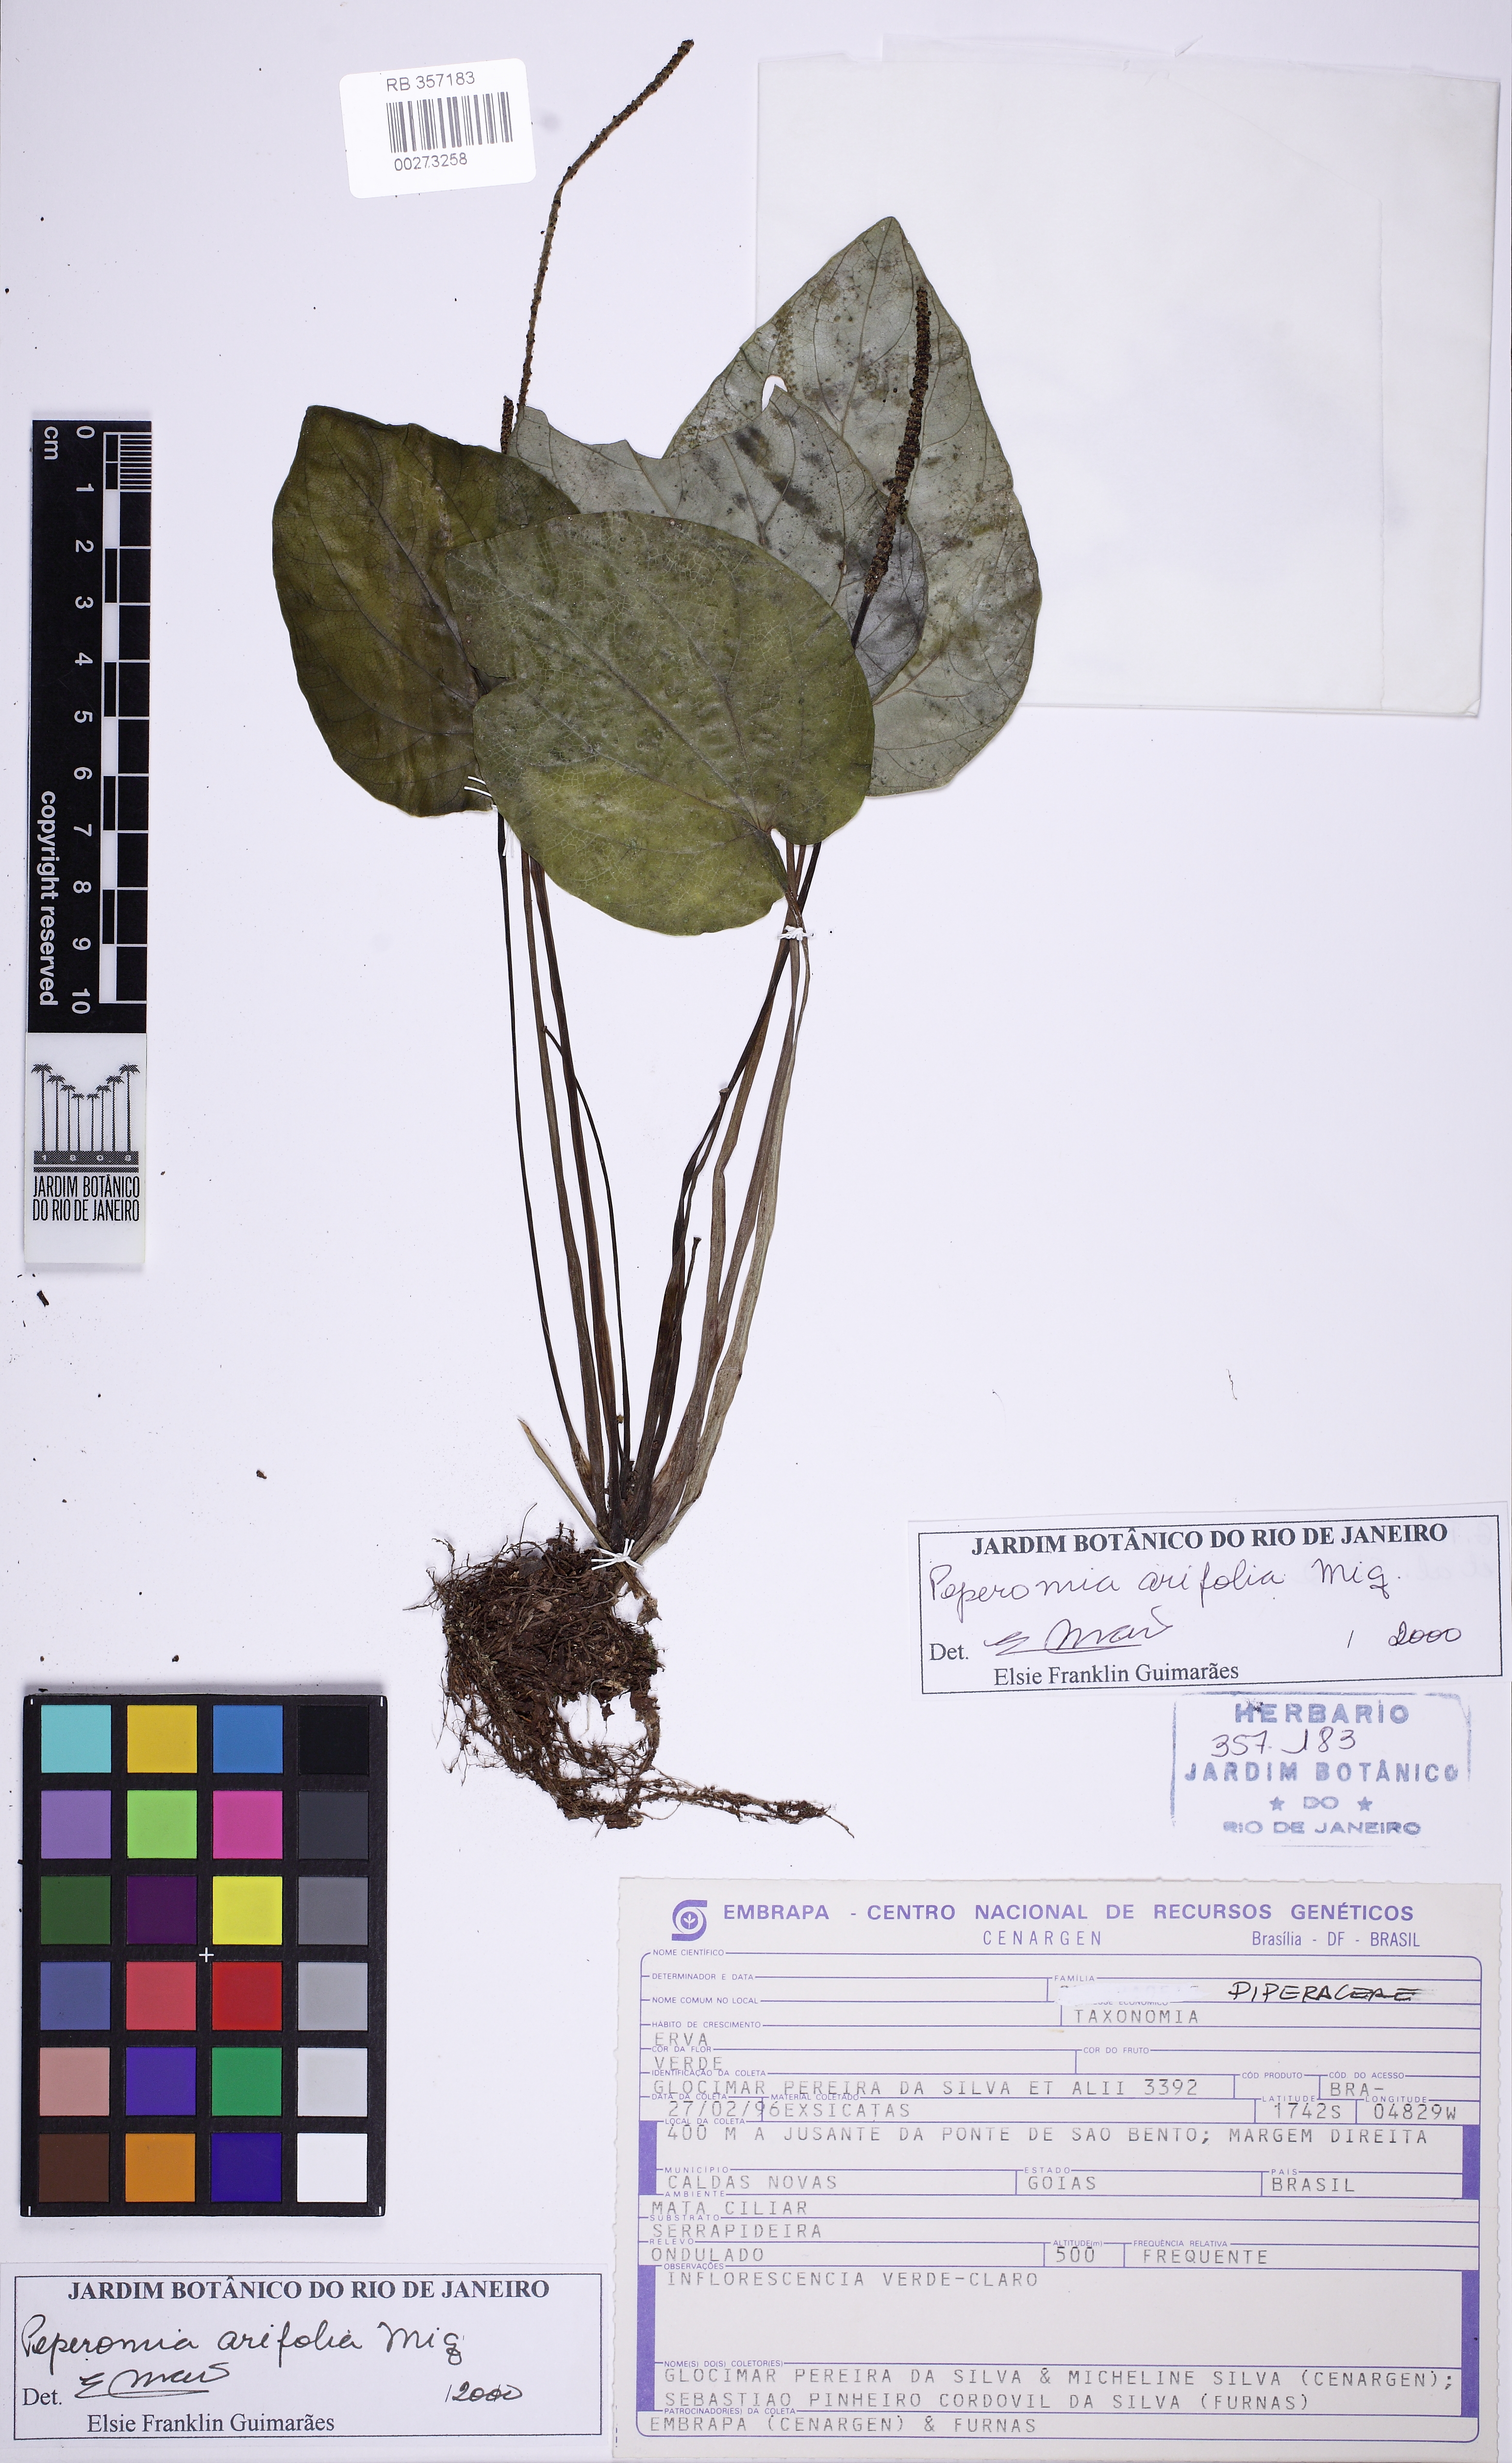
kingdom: Plantae
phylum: Tracheophyta
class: Magnoliopsida
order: Piperales
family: Piperaceae
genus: Peperomia
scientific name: Peperomia arifolia
